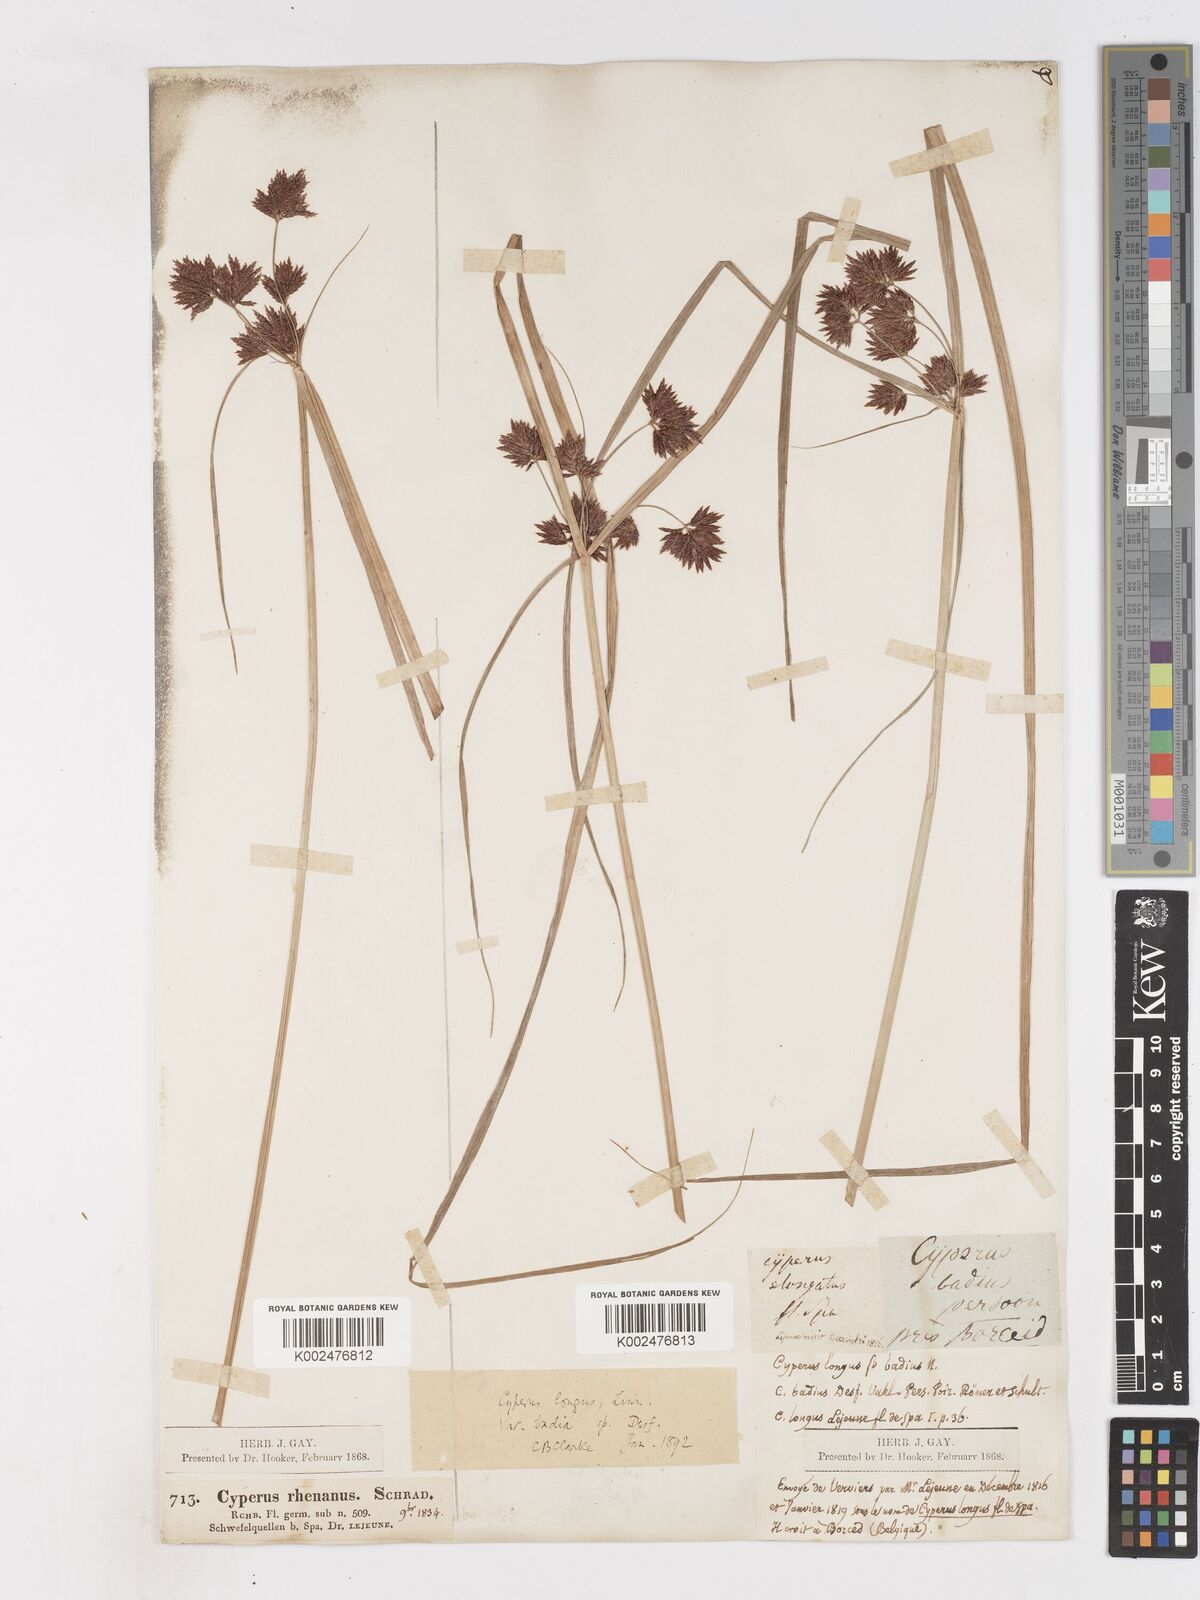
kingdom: Plantae
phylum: Tracheophyta
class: Liliopsida
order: Poales
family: Cyperaceae
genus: Cyperus
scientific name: Cyperus longus
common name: Galingale
